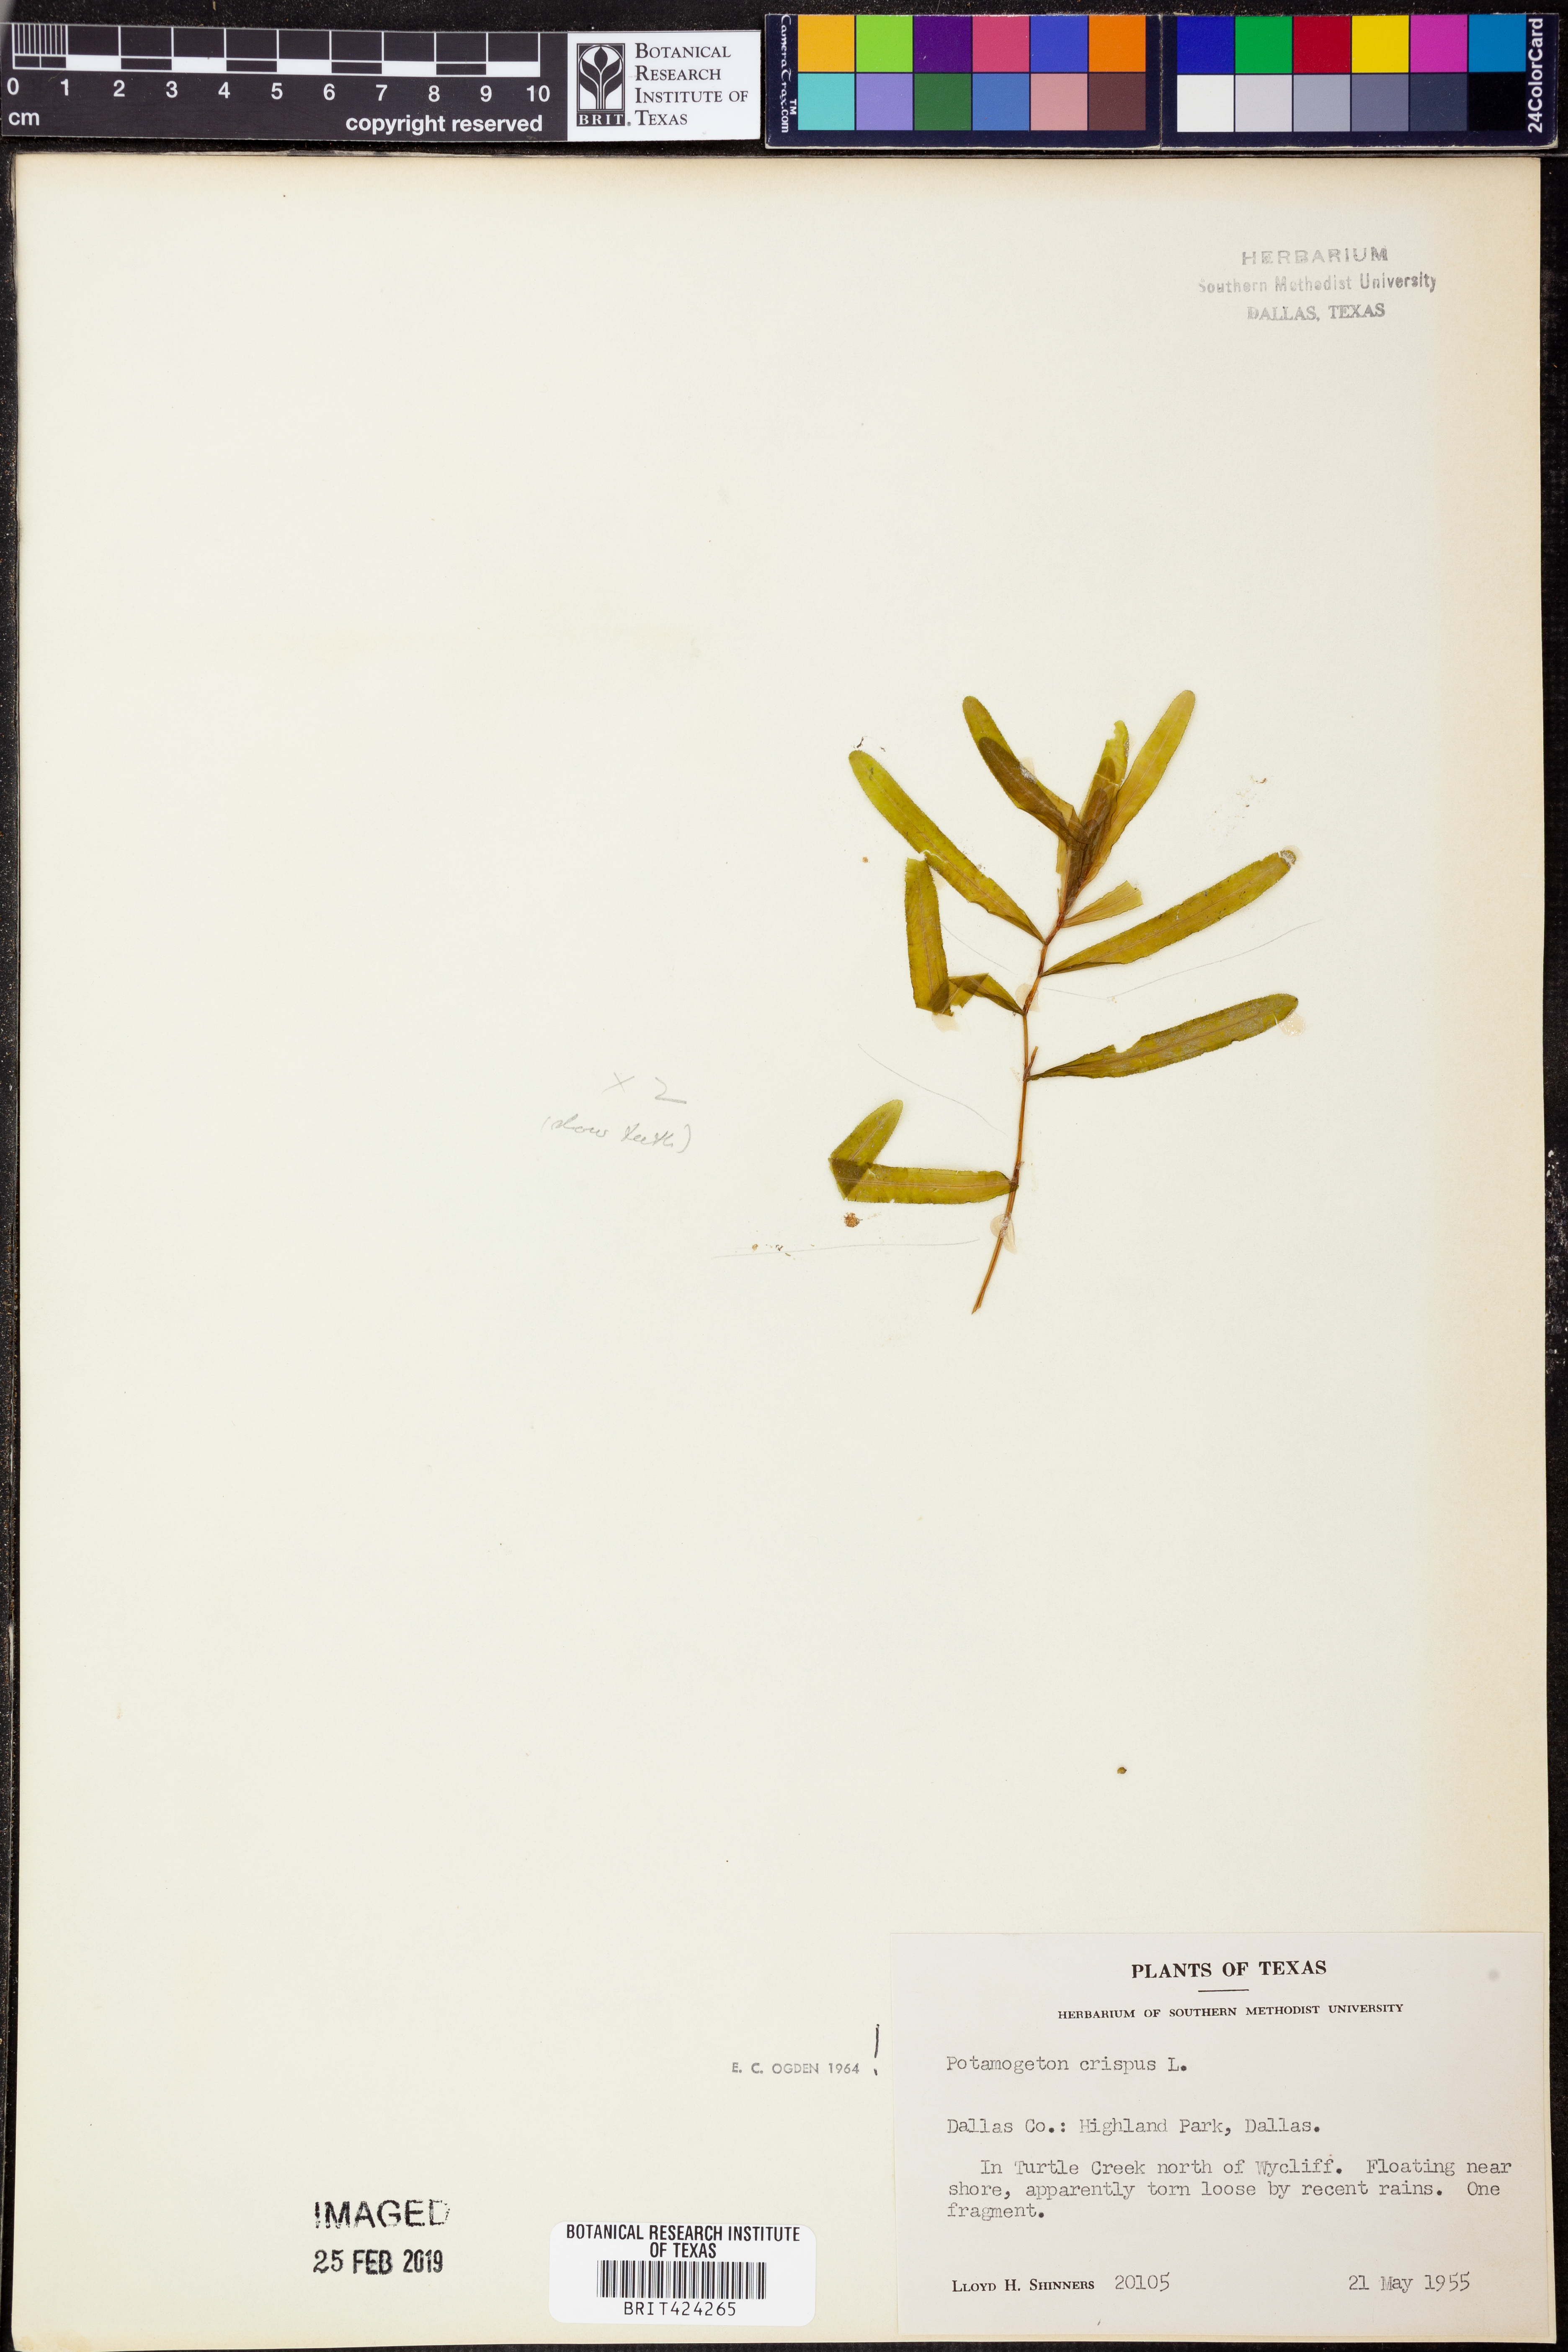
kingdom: Plantae
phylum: Tracheophyta
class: Liliopsida
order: Alismatales
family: Potamogetonaceae
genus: Potamogeton
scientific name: Potamogeton crispus
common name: Curled pondweed
